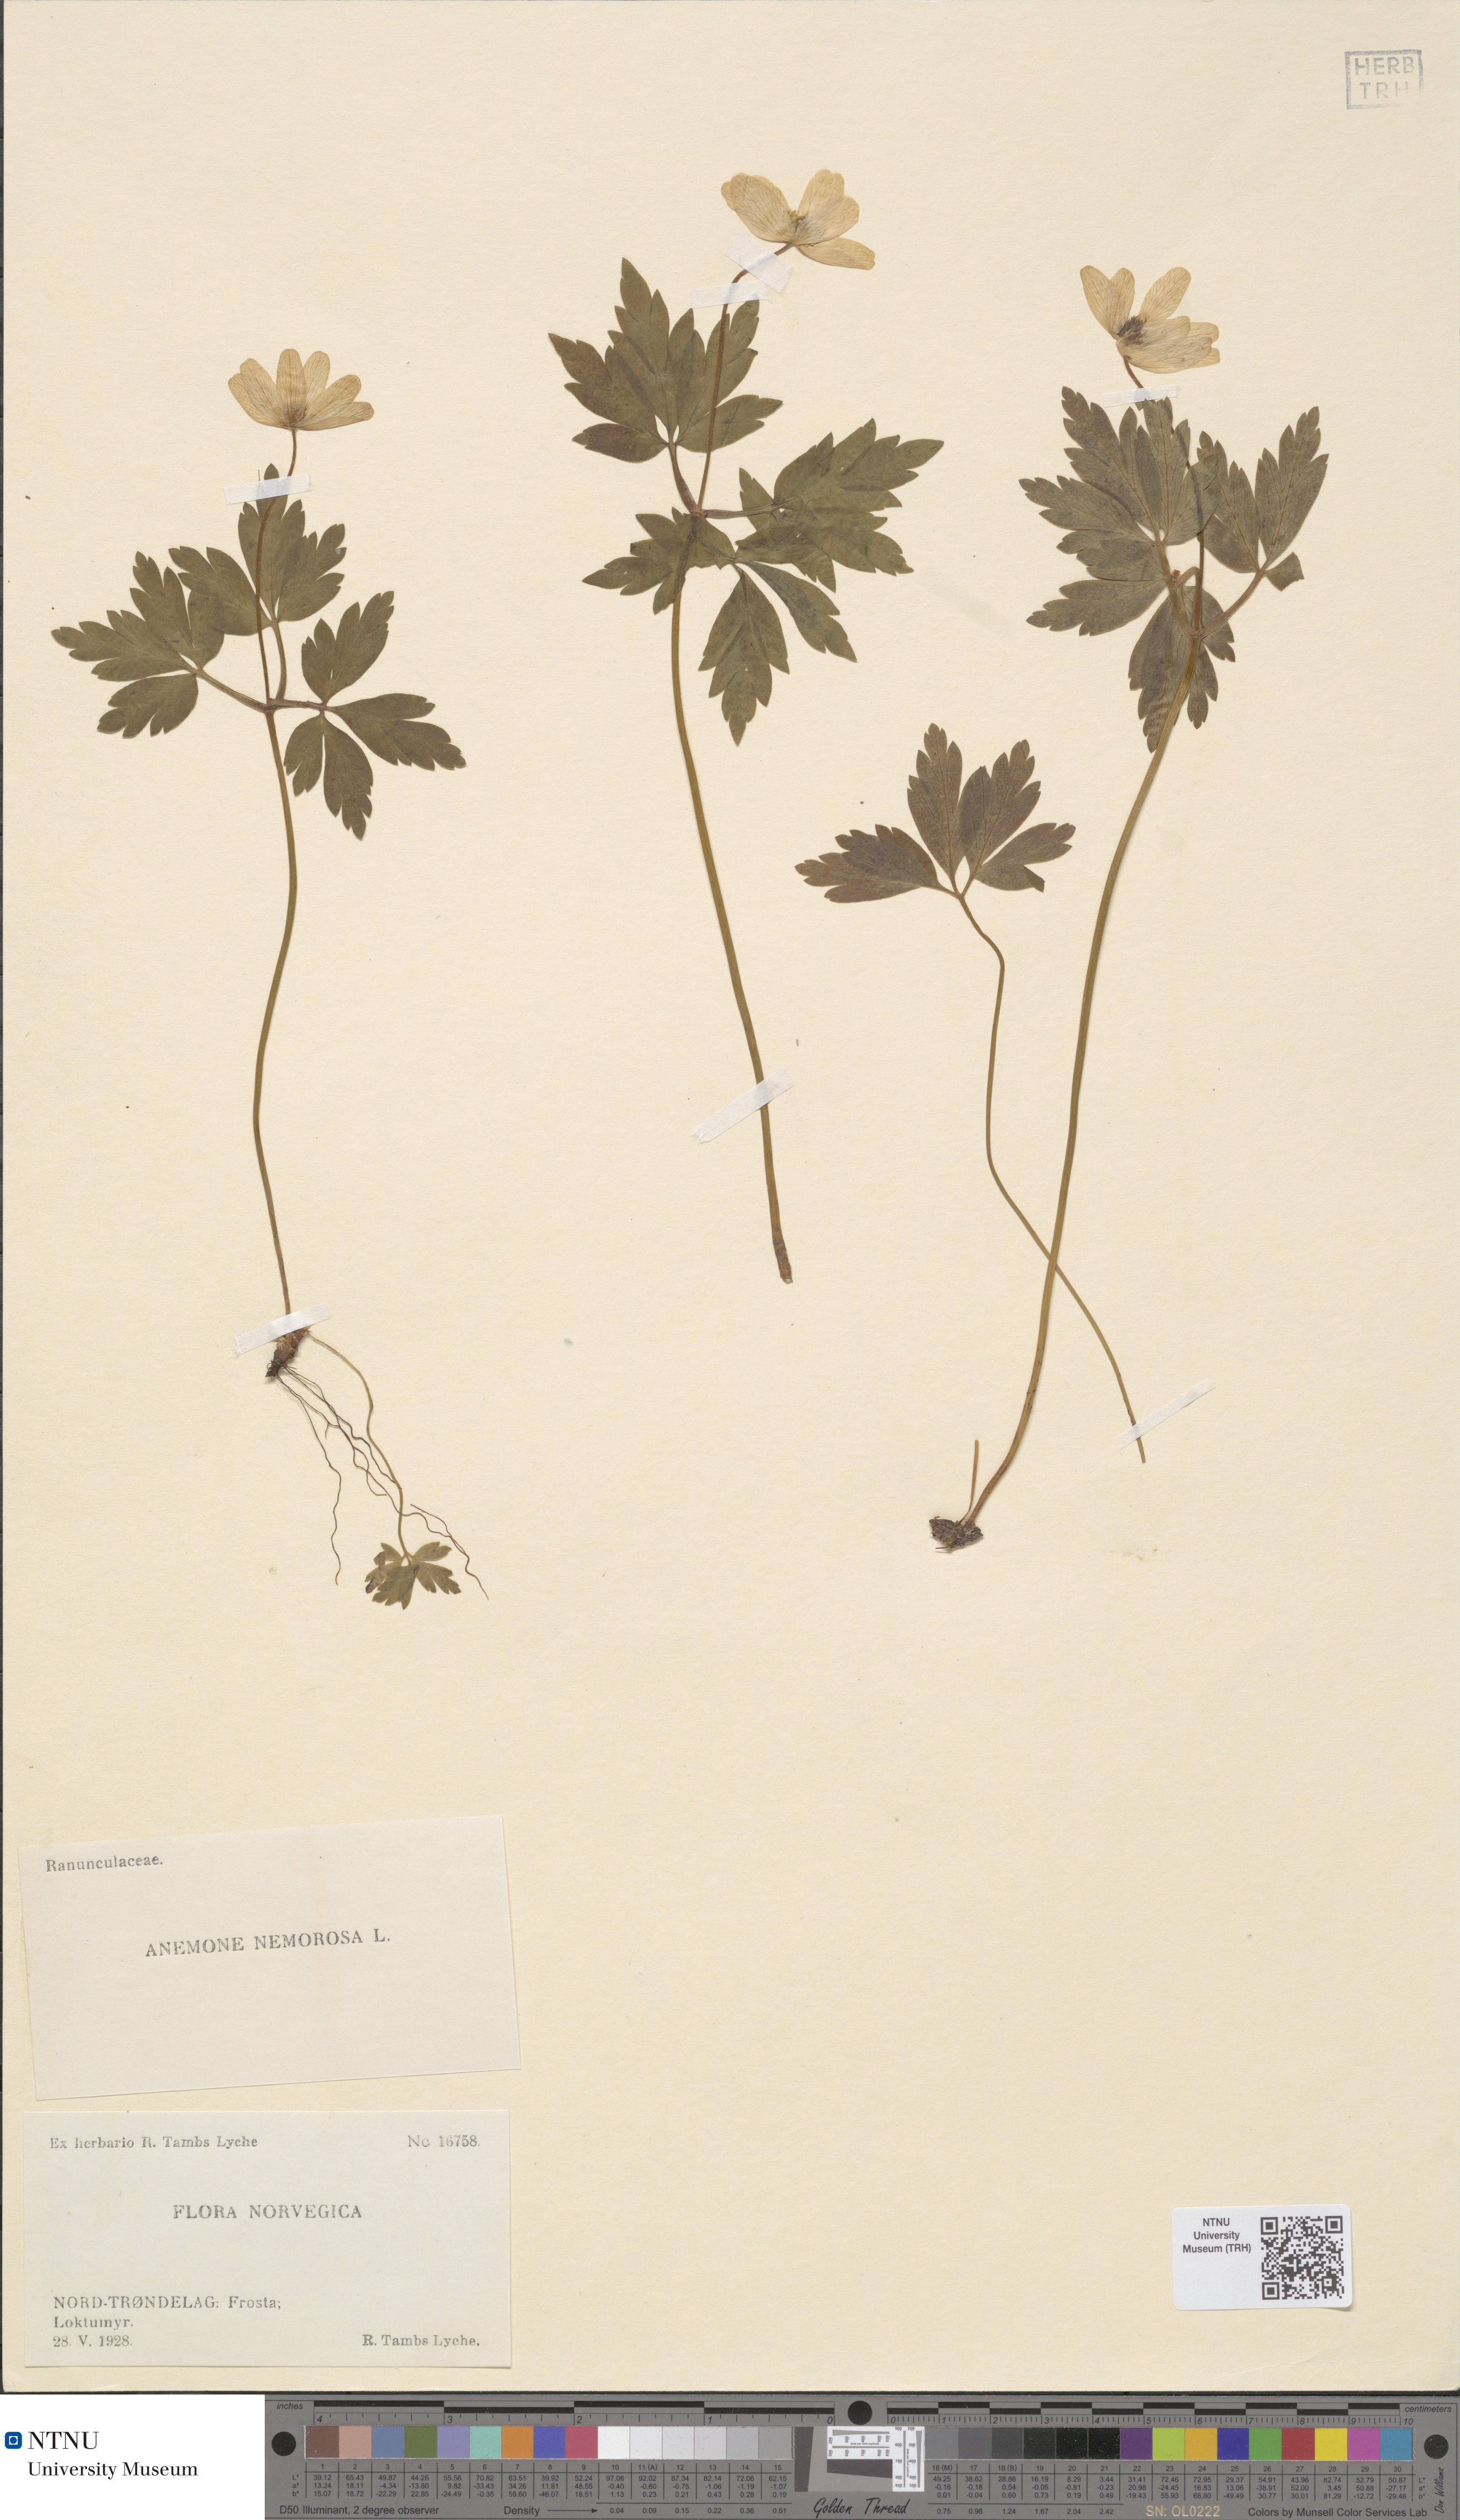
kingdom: Plantae
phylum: Tracheophyta
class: Magnoliopsida
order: Ranunculales
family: Ranunculaceae
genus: Anemone
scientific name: Anemone nemorosa
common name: Wood anemone
